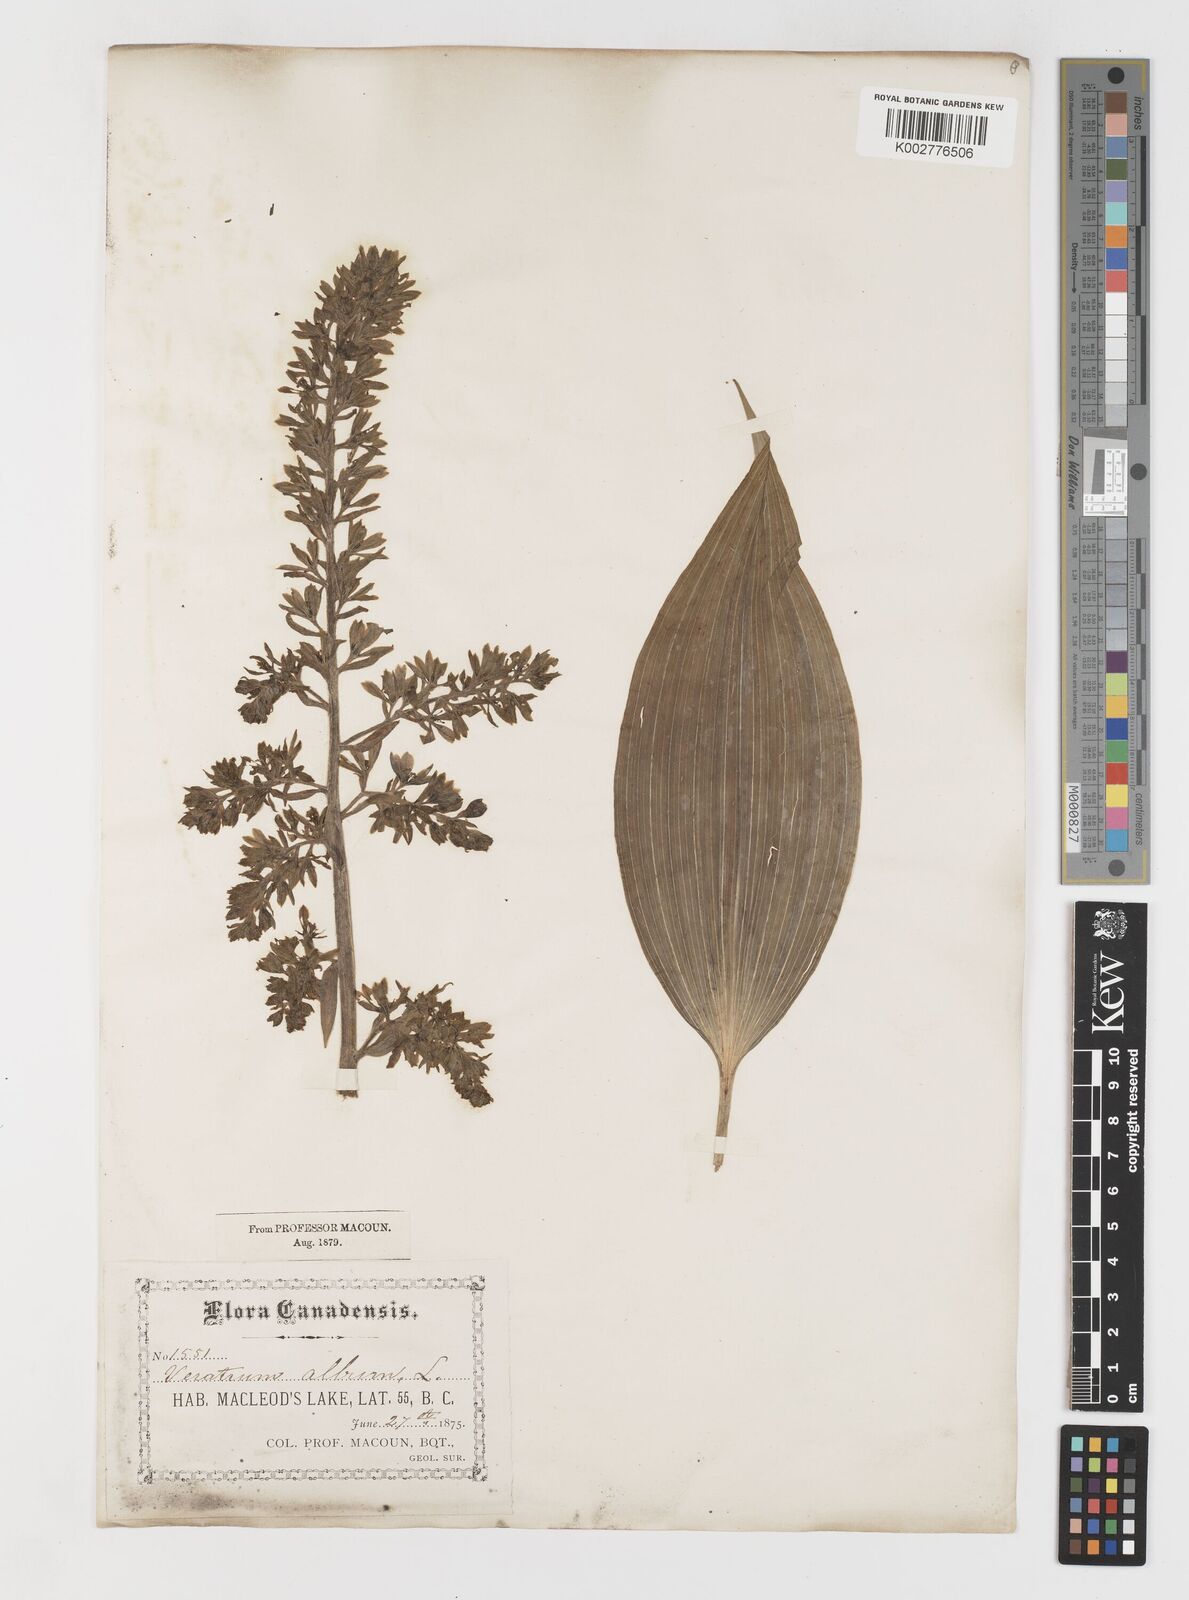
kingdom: Plantae
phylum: Tracheophyta
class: Liliopsida
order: Liliales
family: Melanthiaceae
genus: Veratrum
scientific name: Veratrum viride
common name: American false hellebore
